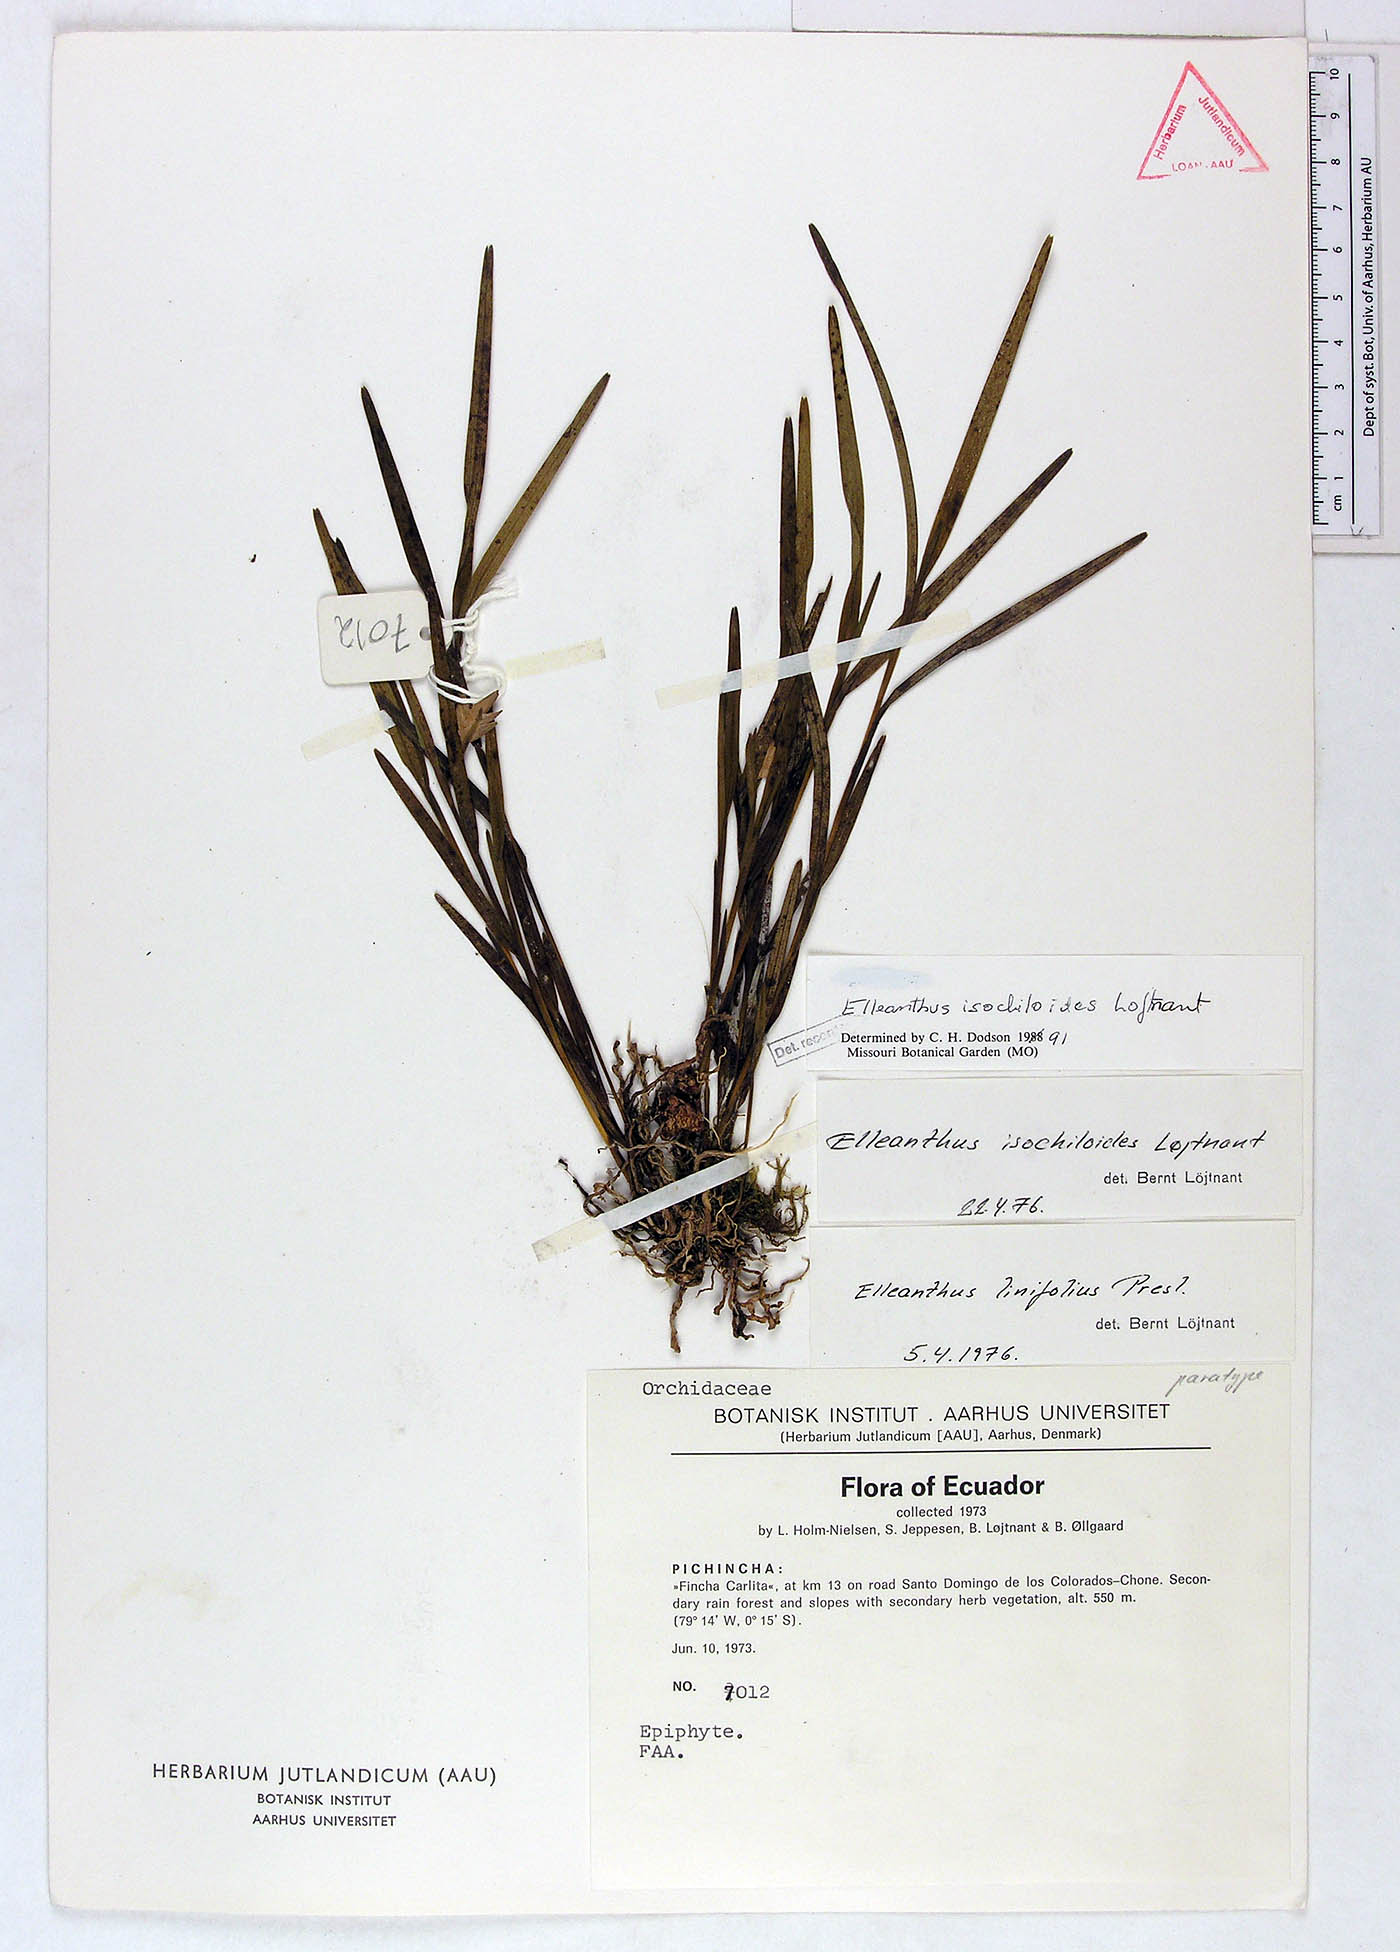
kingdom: Plantae
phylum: Tracheophyta
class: Liliopsida
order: Asparagales
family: Orchidaceae
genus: Elleanthus
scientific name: Elleanthus isochiloides
